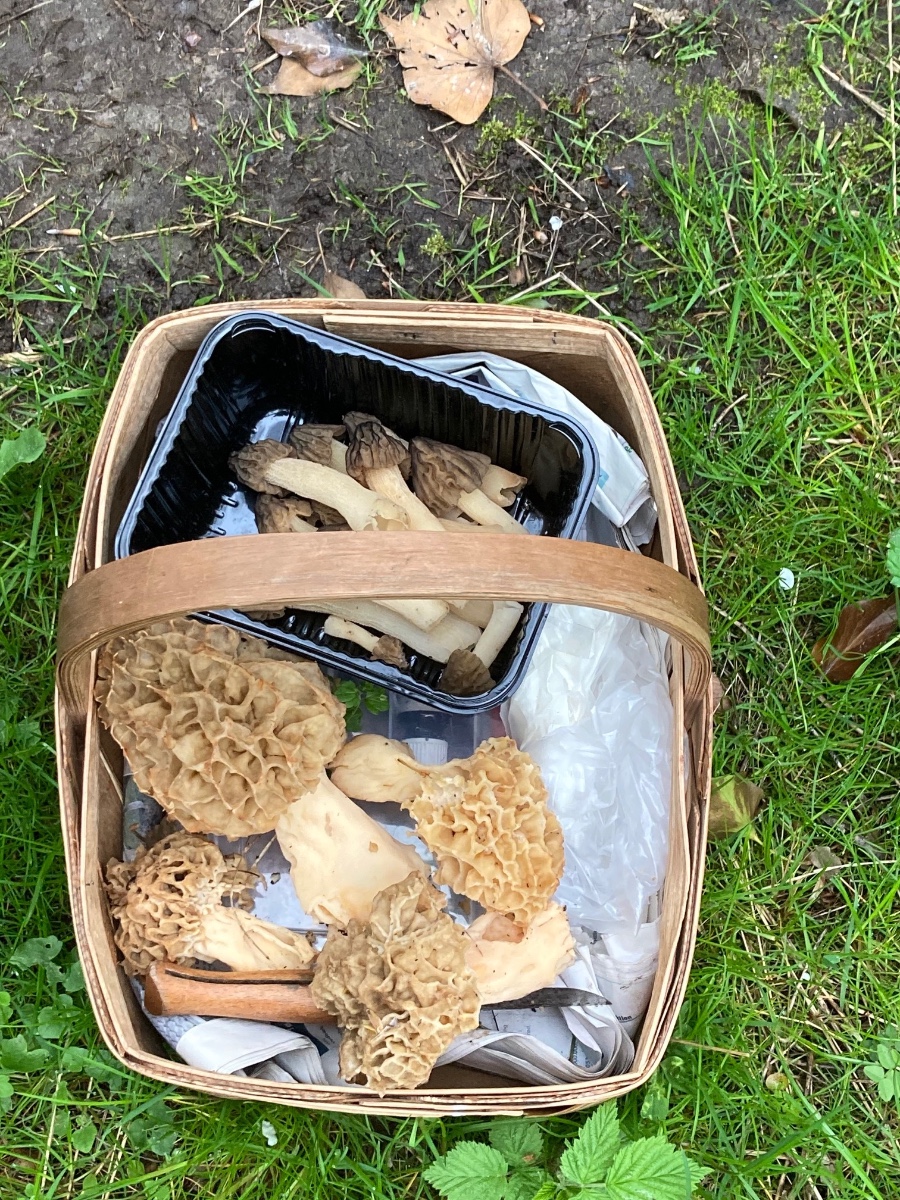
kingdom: Fungi
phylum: Ascomycota
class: Pezizomycetes
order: Pezizales
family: Morchellaceae
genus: Morchella
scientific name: Morchella esculenta
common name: spiselig morkel
